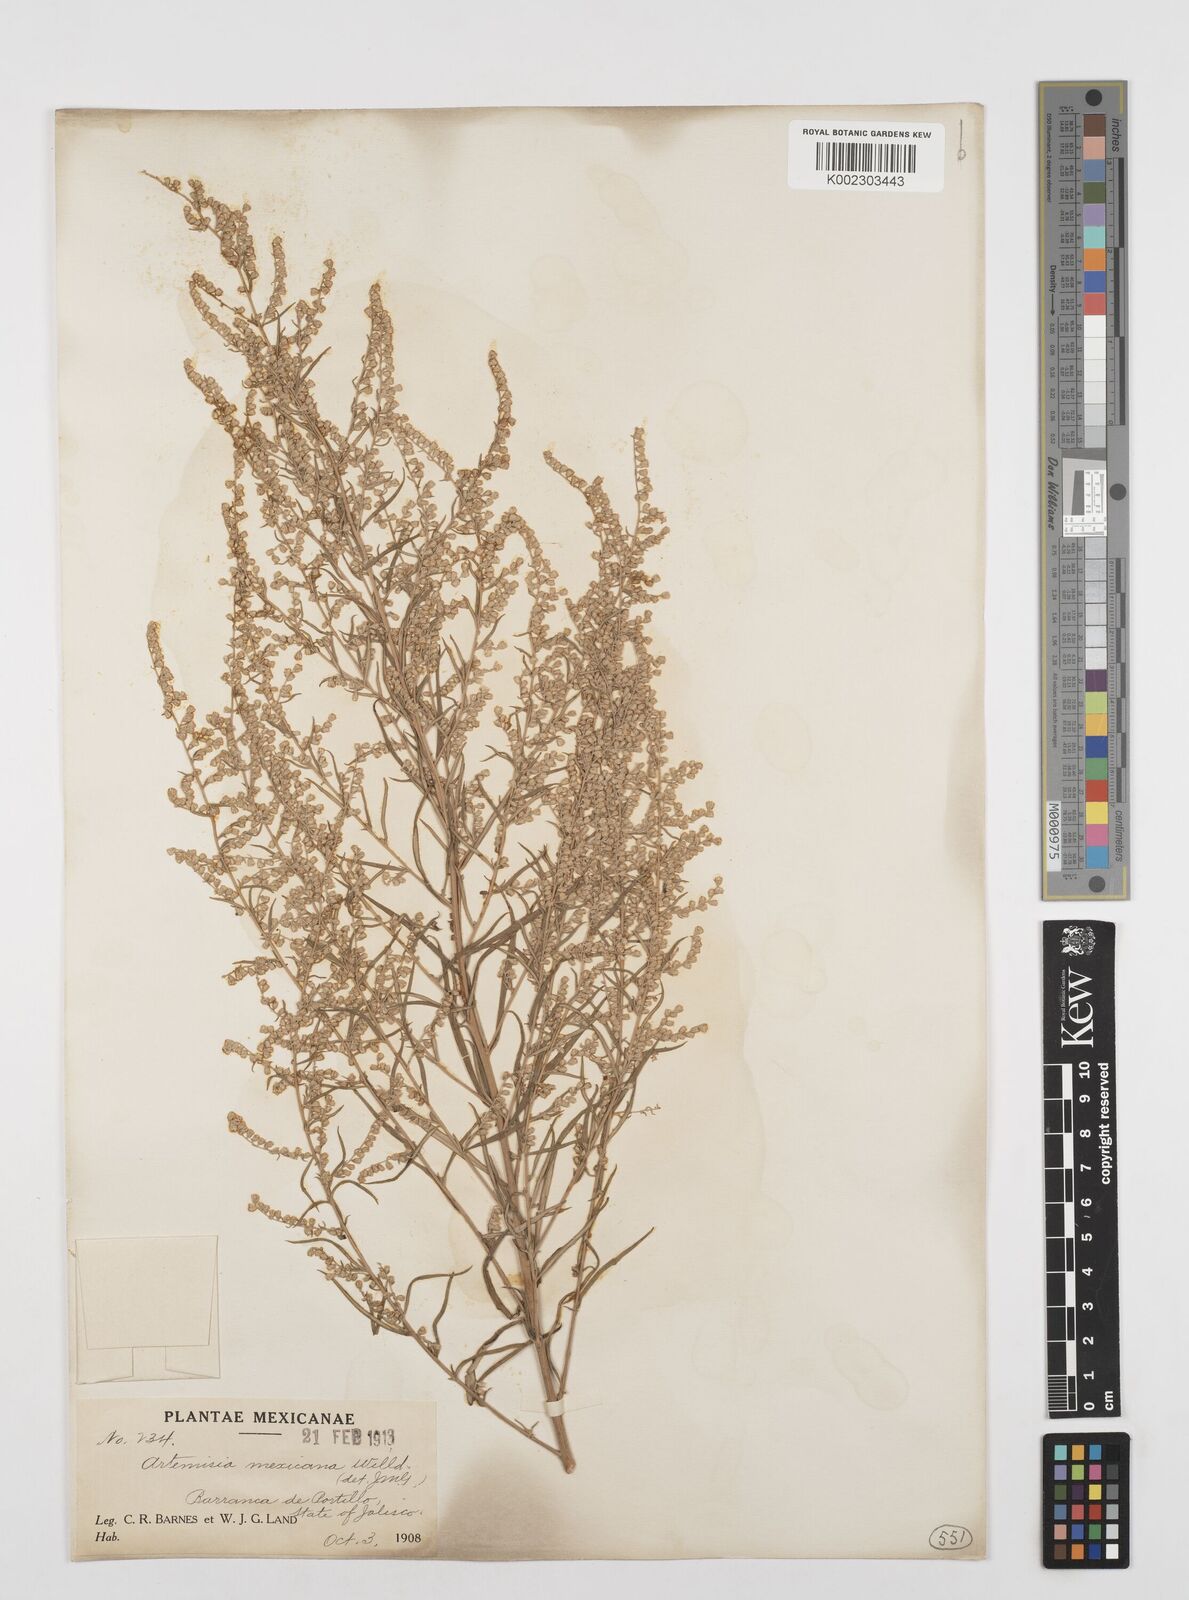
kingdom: Plantae
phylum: Tracheophyta
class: Magnoliopsida
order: Asterales
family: Asteraceae
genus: Artemisia
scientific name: Artemisia ludoviciana
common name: Western mugwort
